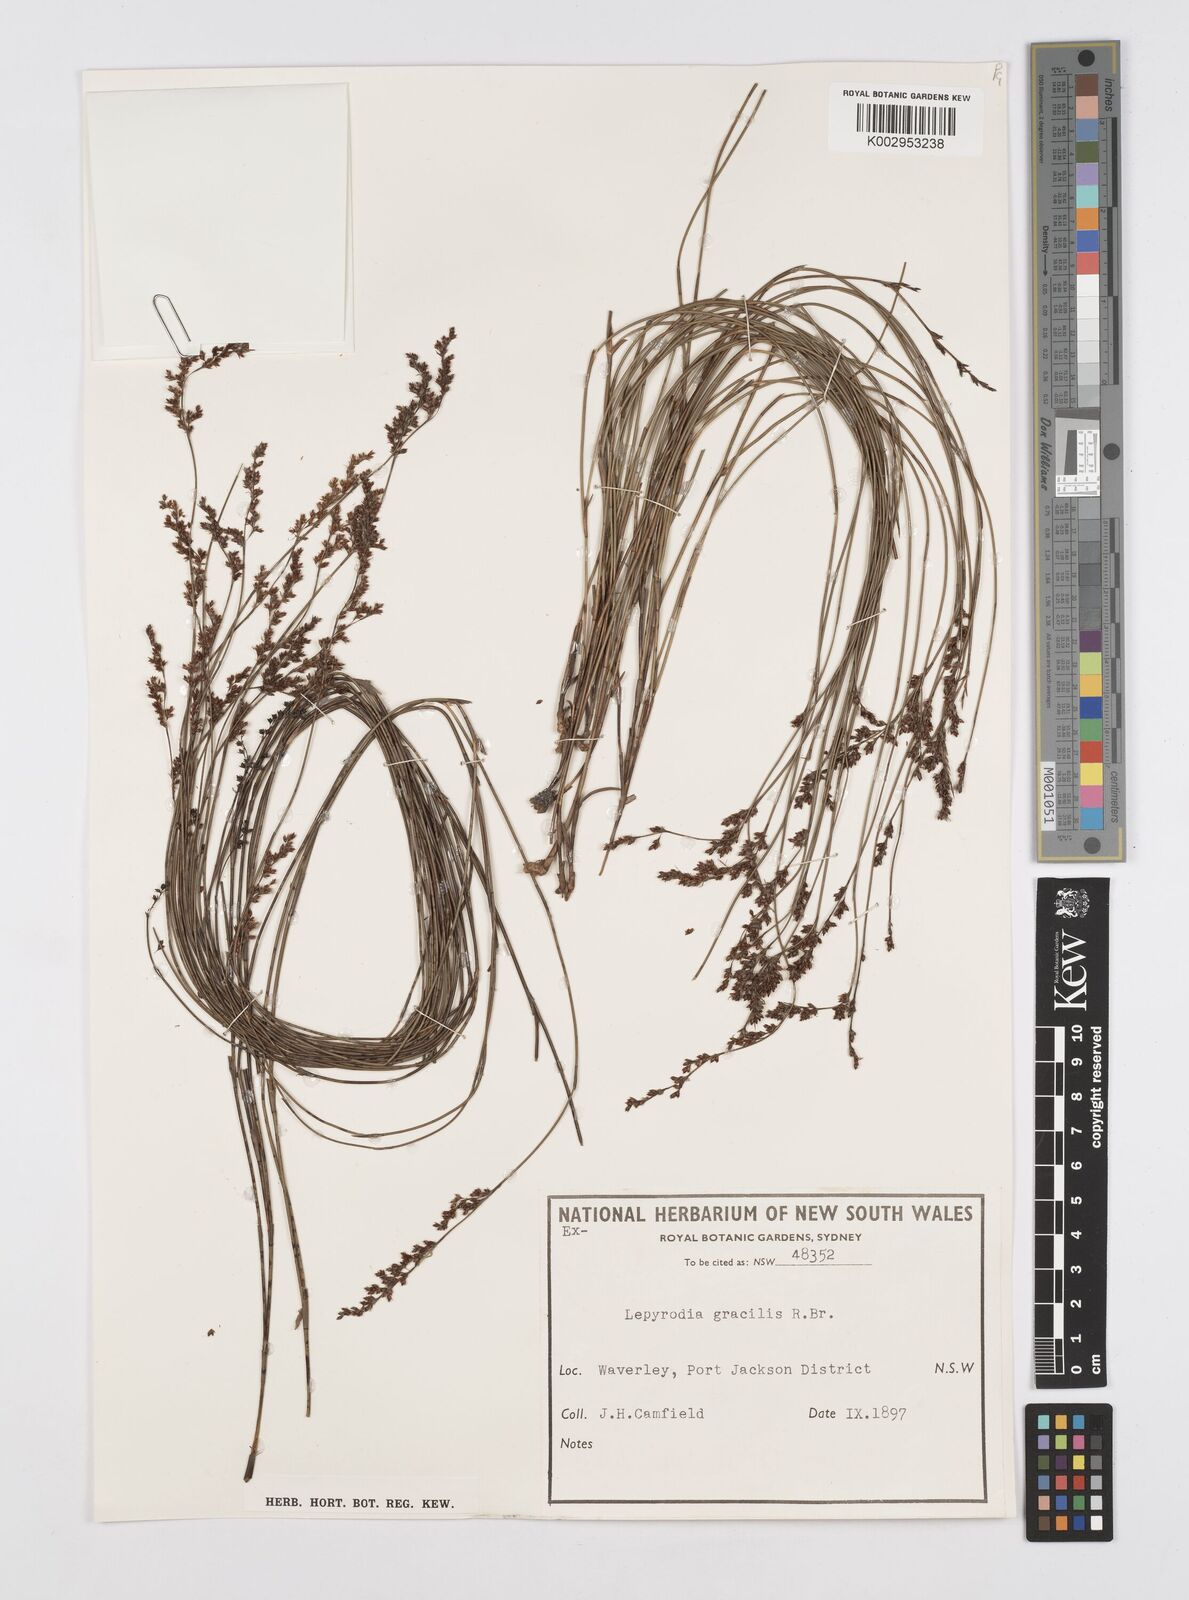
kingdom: Plantae
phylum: Tracheophyta
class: Liliopsida
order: Poales
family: Restionaceae
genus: Sporadanthus
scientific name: Sporadanthus gracilis
